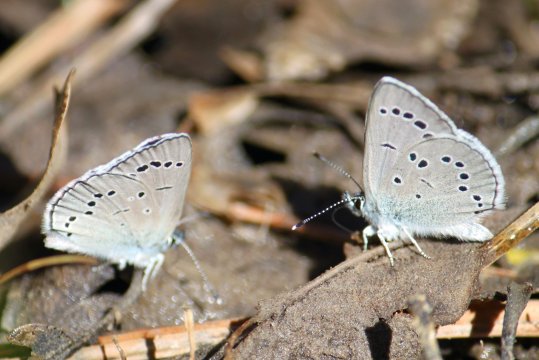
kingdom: Animalia
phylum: Arthropoda
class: Insecta
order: Lepidoptera
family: Lycaenidae
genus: Glaucopsyche
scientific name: Glaucopsyche lygdamus
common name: Silvery Blue
